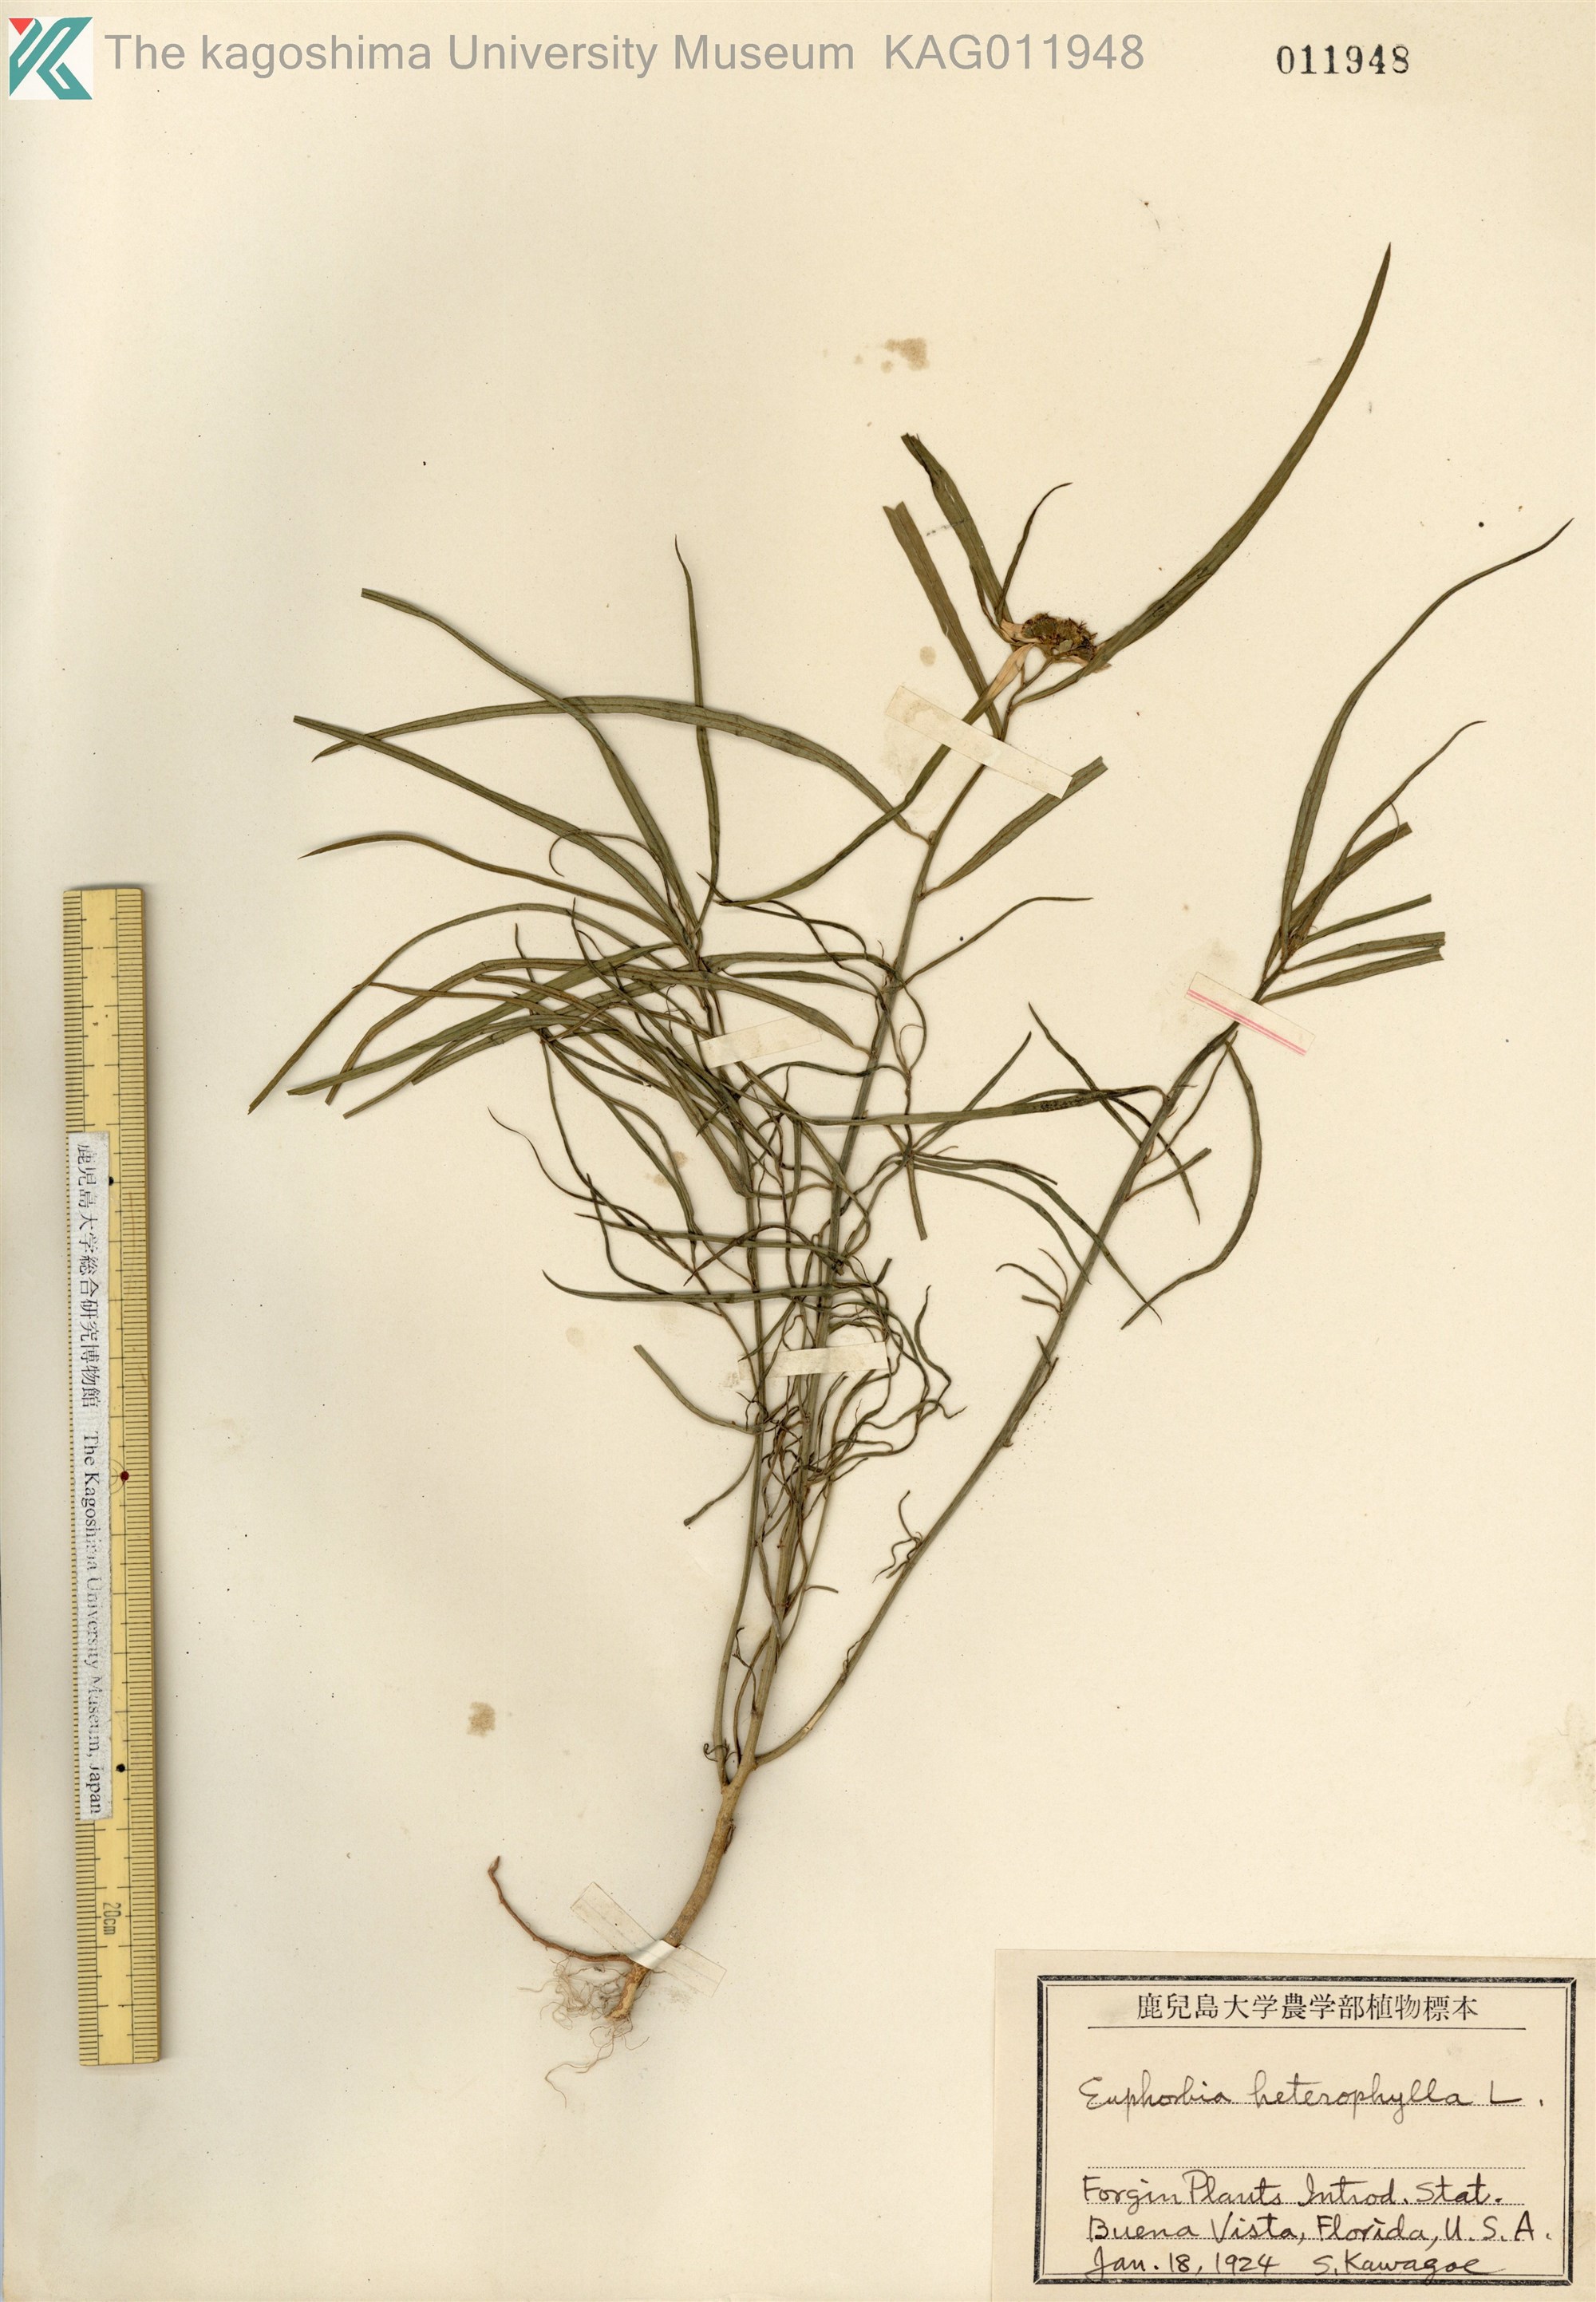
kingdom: Plantae
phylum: Tracheophyta
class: Magnoliopsida
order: Malpighiales
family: Euphorbiaceae
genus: Euphorbia
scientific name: Euphorbia heterophylla
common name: Mexican fireplant
